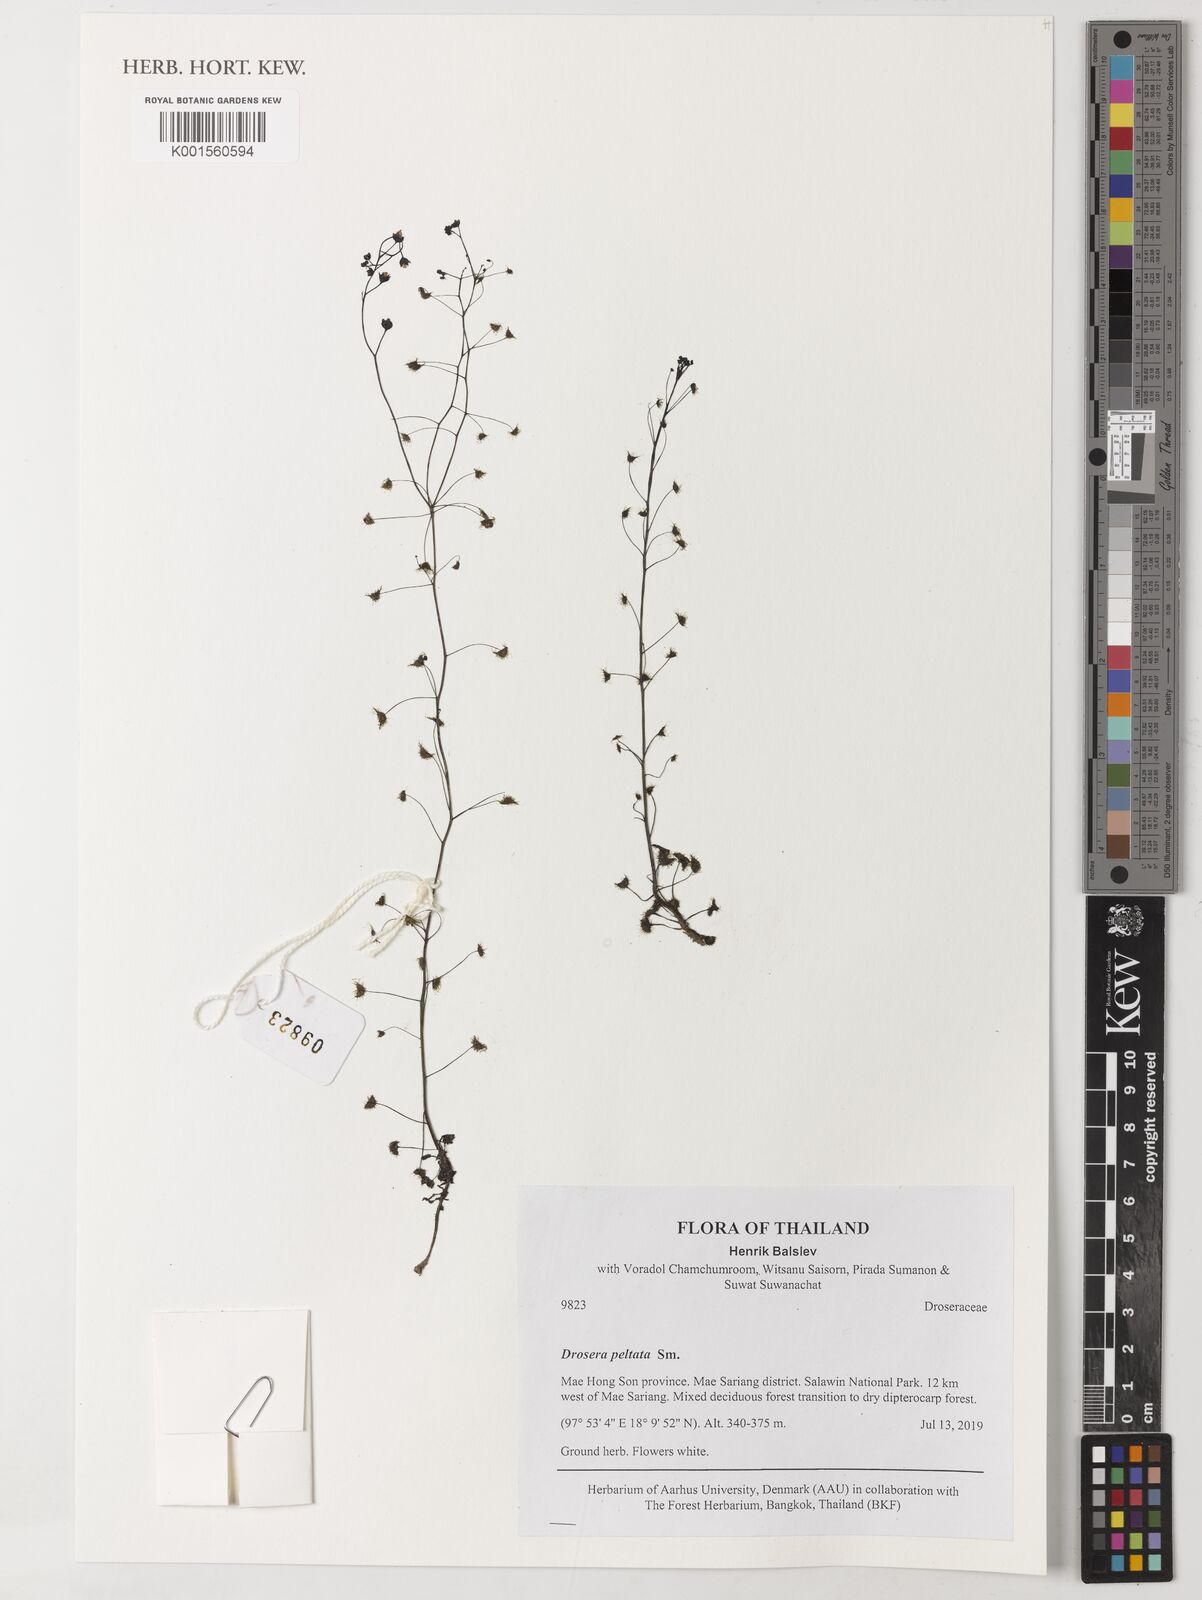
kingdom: Plantae
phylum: Tracheophyta
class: Magnoliopsida
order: Caryophyllales
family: Droseraceae
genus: Drosera
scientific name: Drosera peltata
